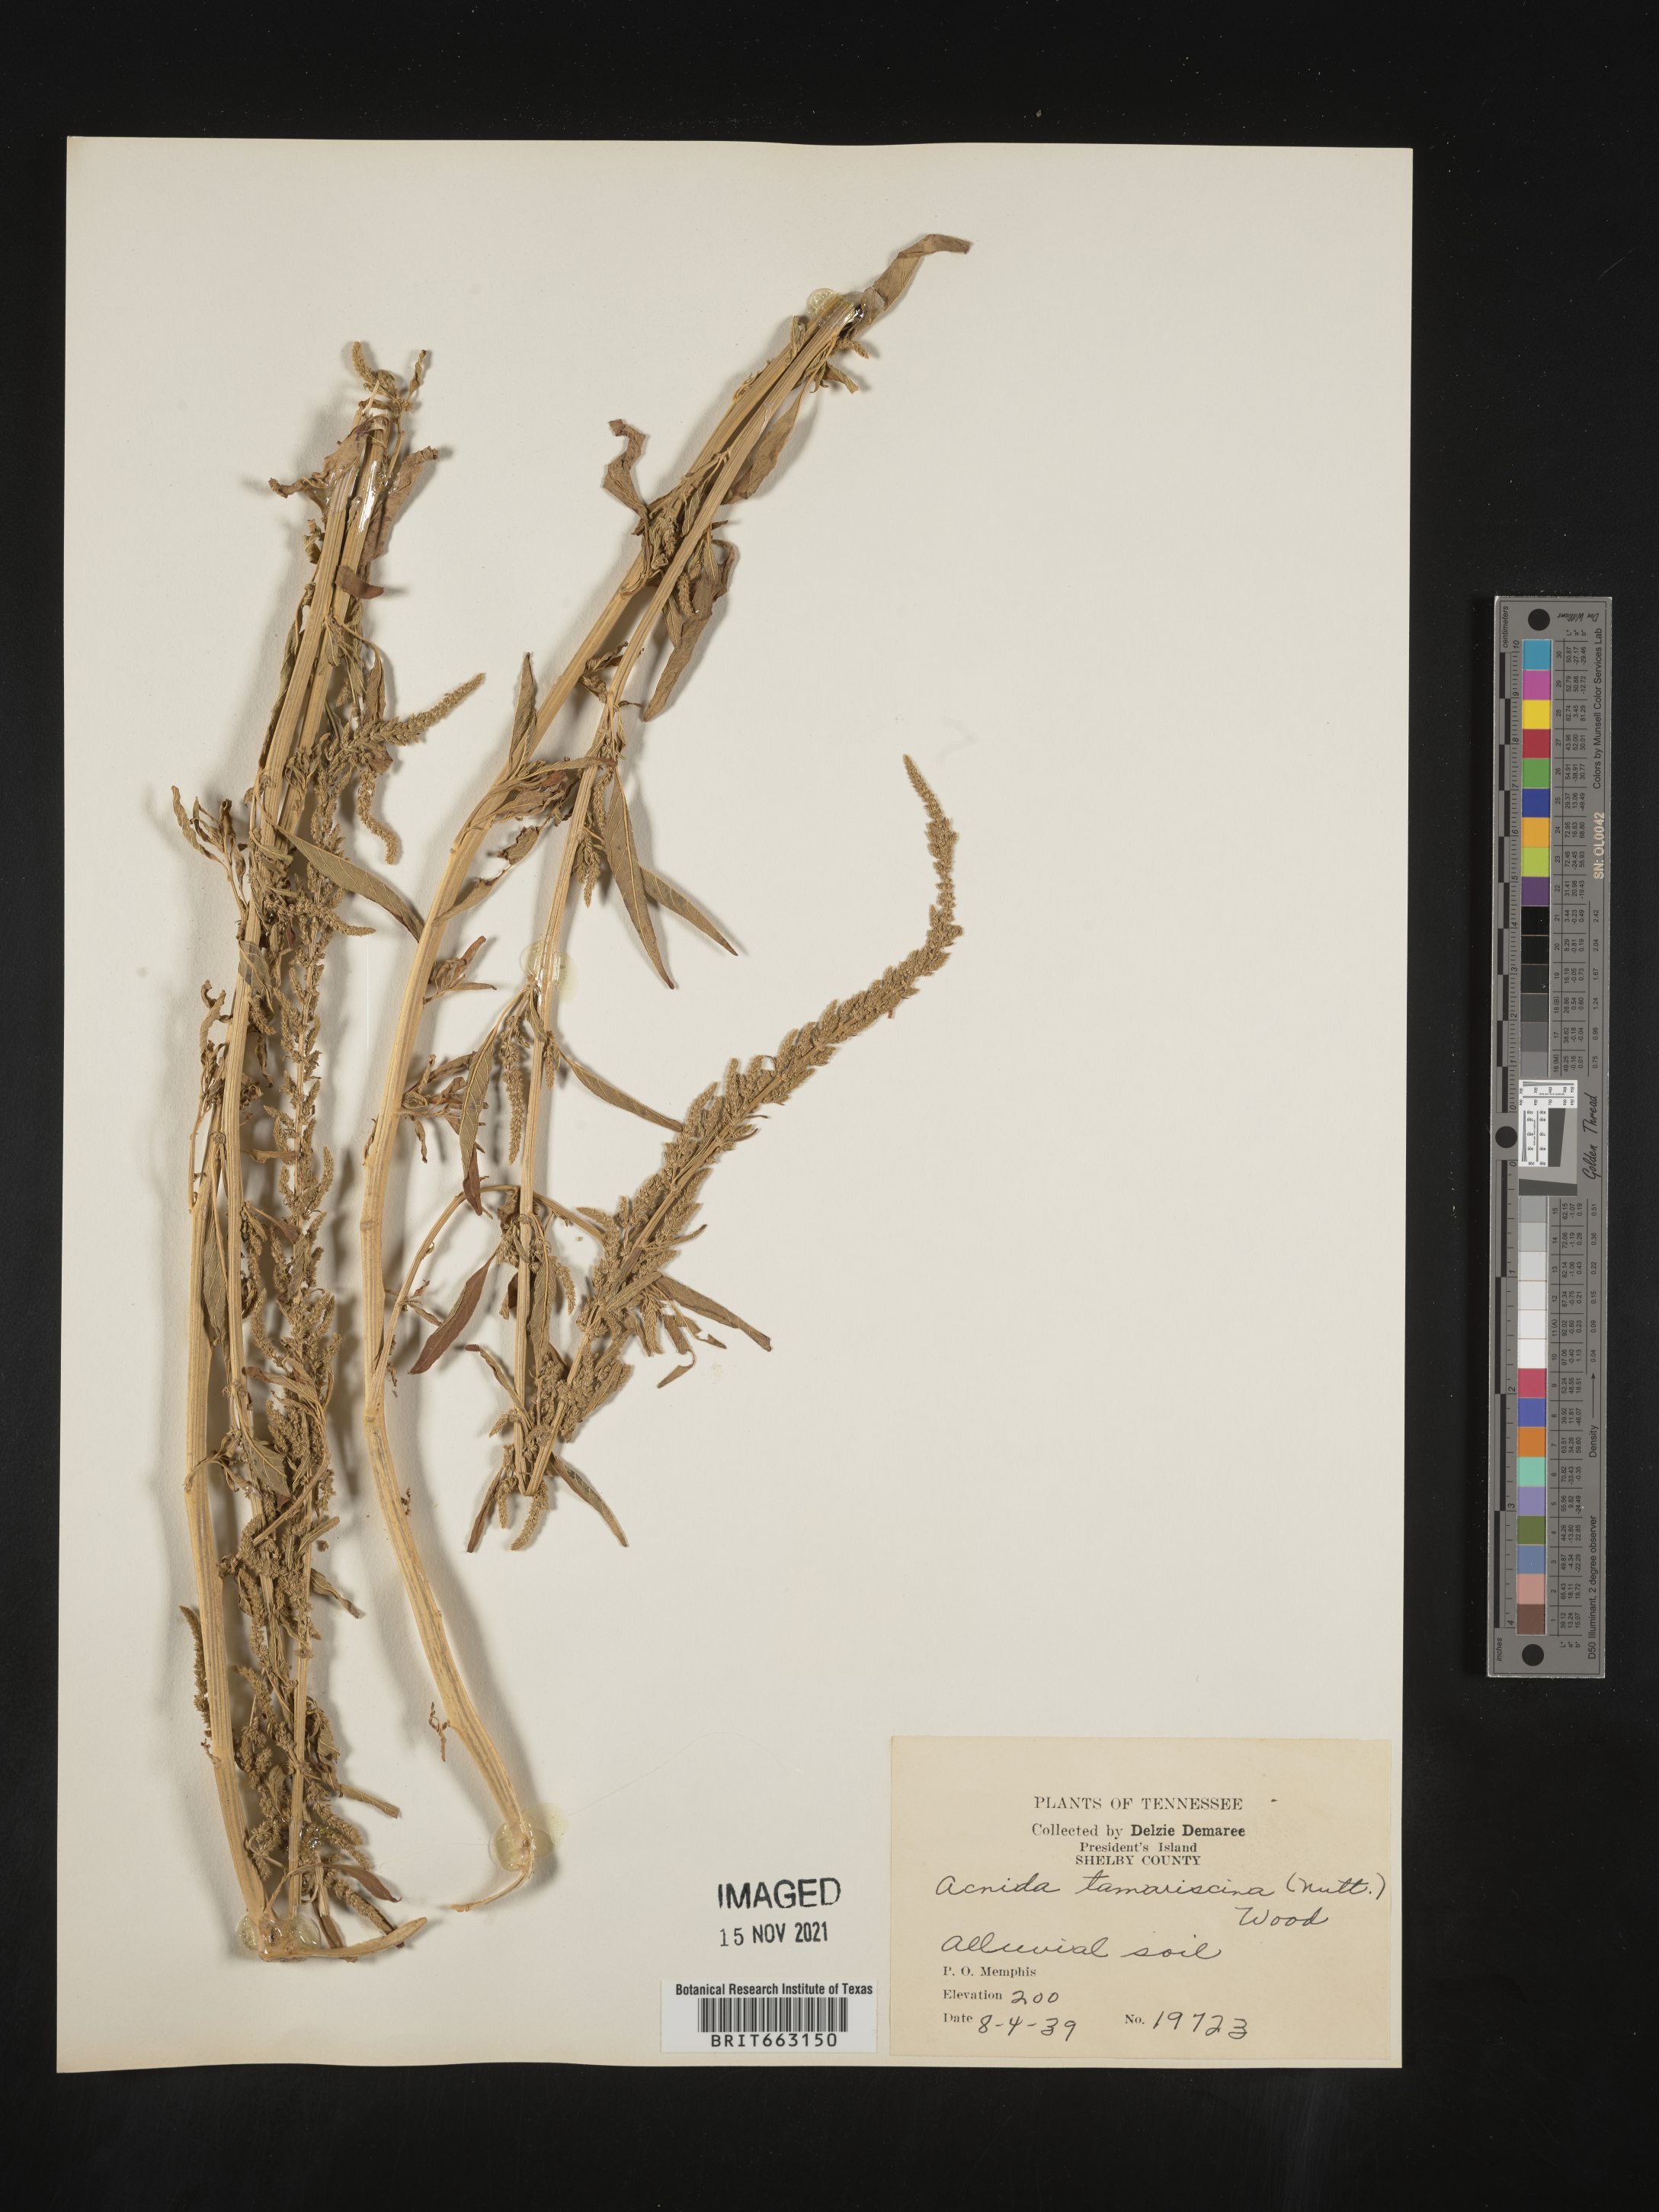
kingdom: Plantae
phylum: Tracheophyta
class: Magnoliopsida
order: Caryophyllales
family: Amaranthaceae
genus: Amaranthus
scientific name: Amaranthus tamariscinus
